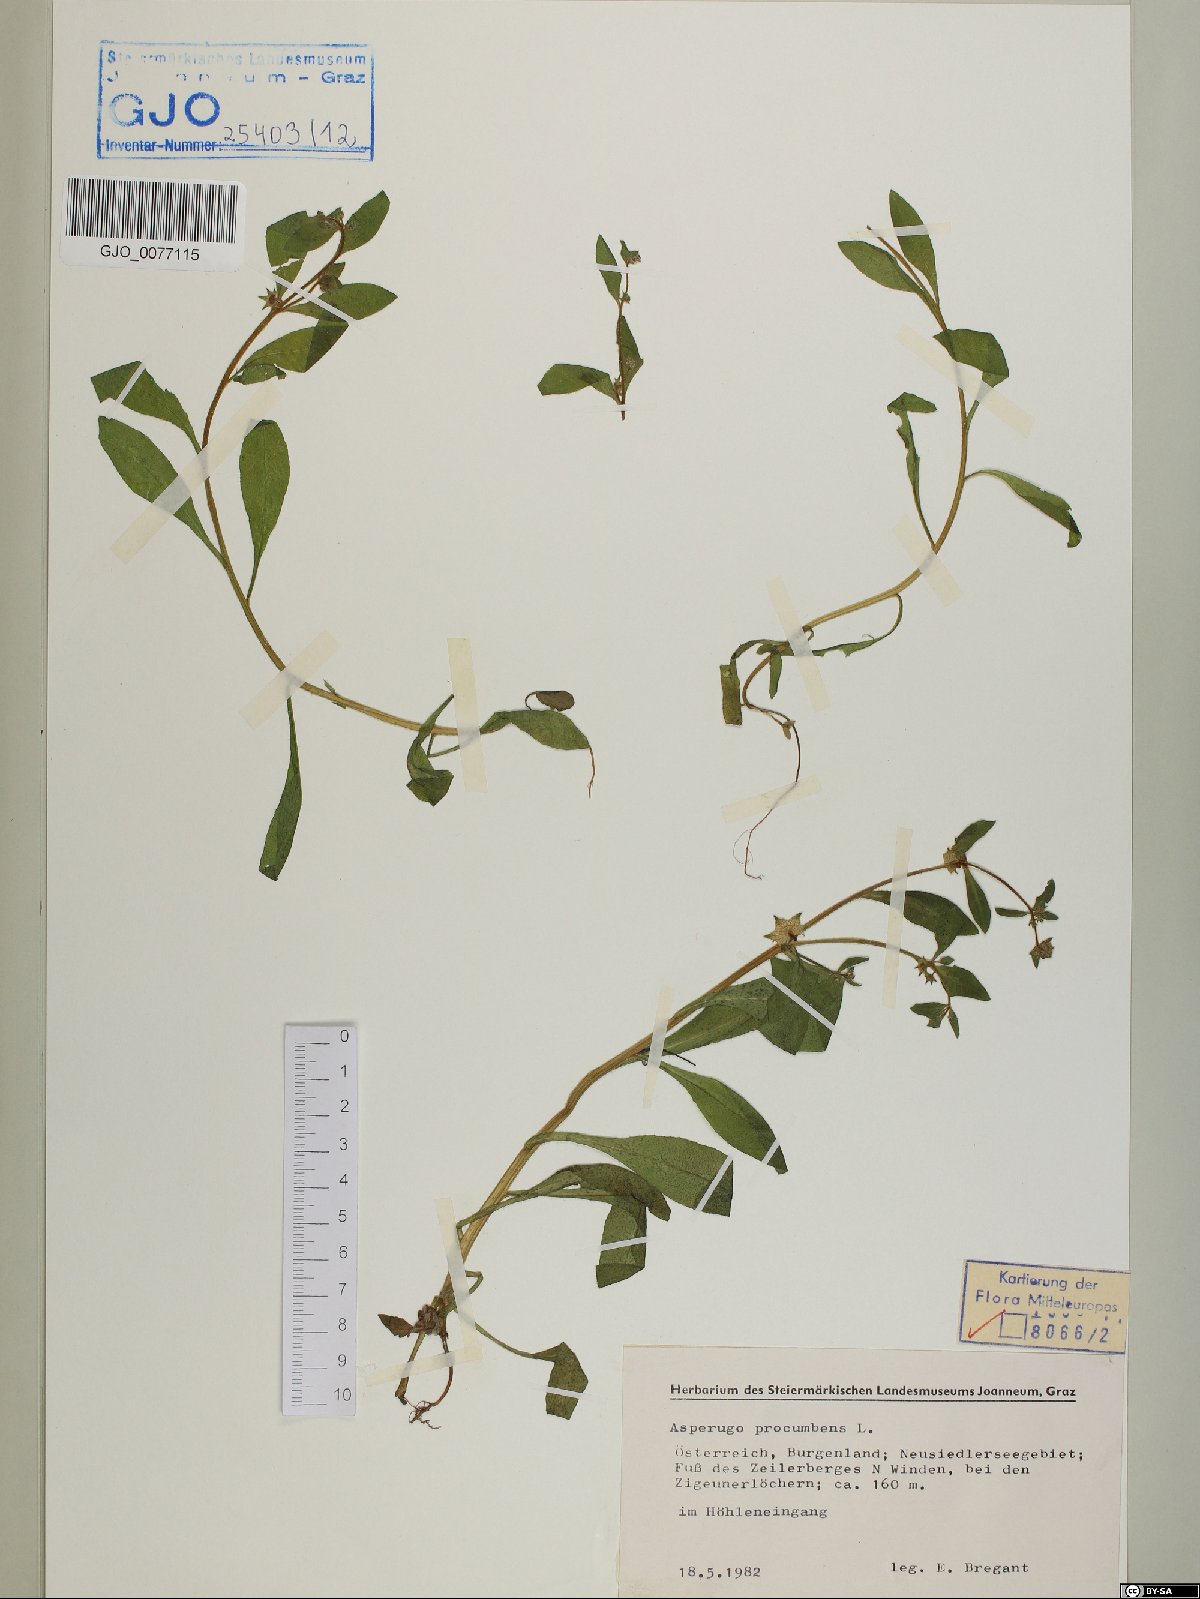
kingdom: Plantae
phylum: Tracheophyta
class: Magnoliopsida
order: Boraginales
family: Boraginaceae
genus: Asperugo
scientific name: Asperugo procumbens
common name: Madwort
